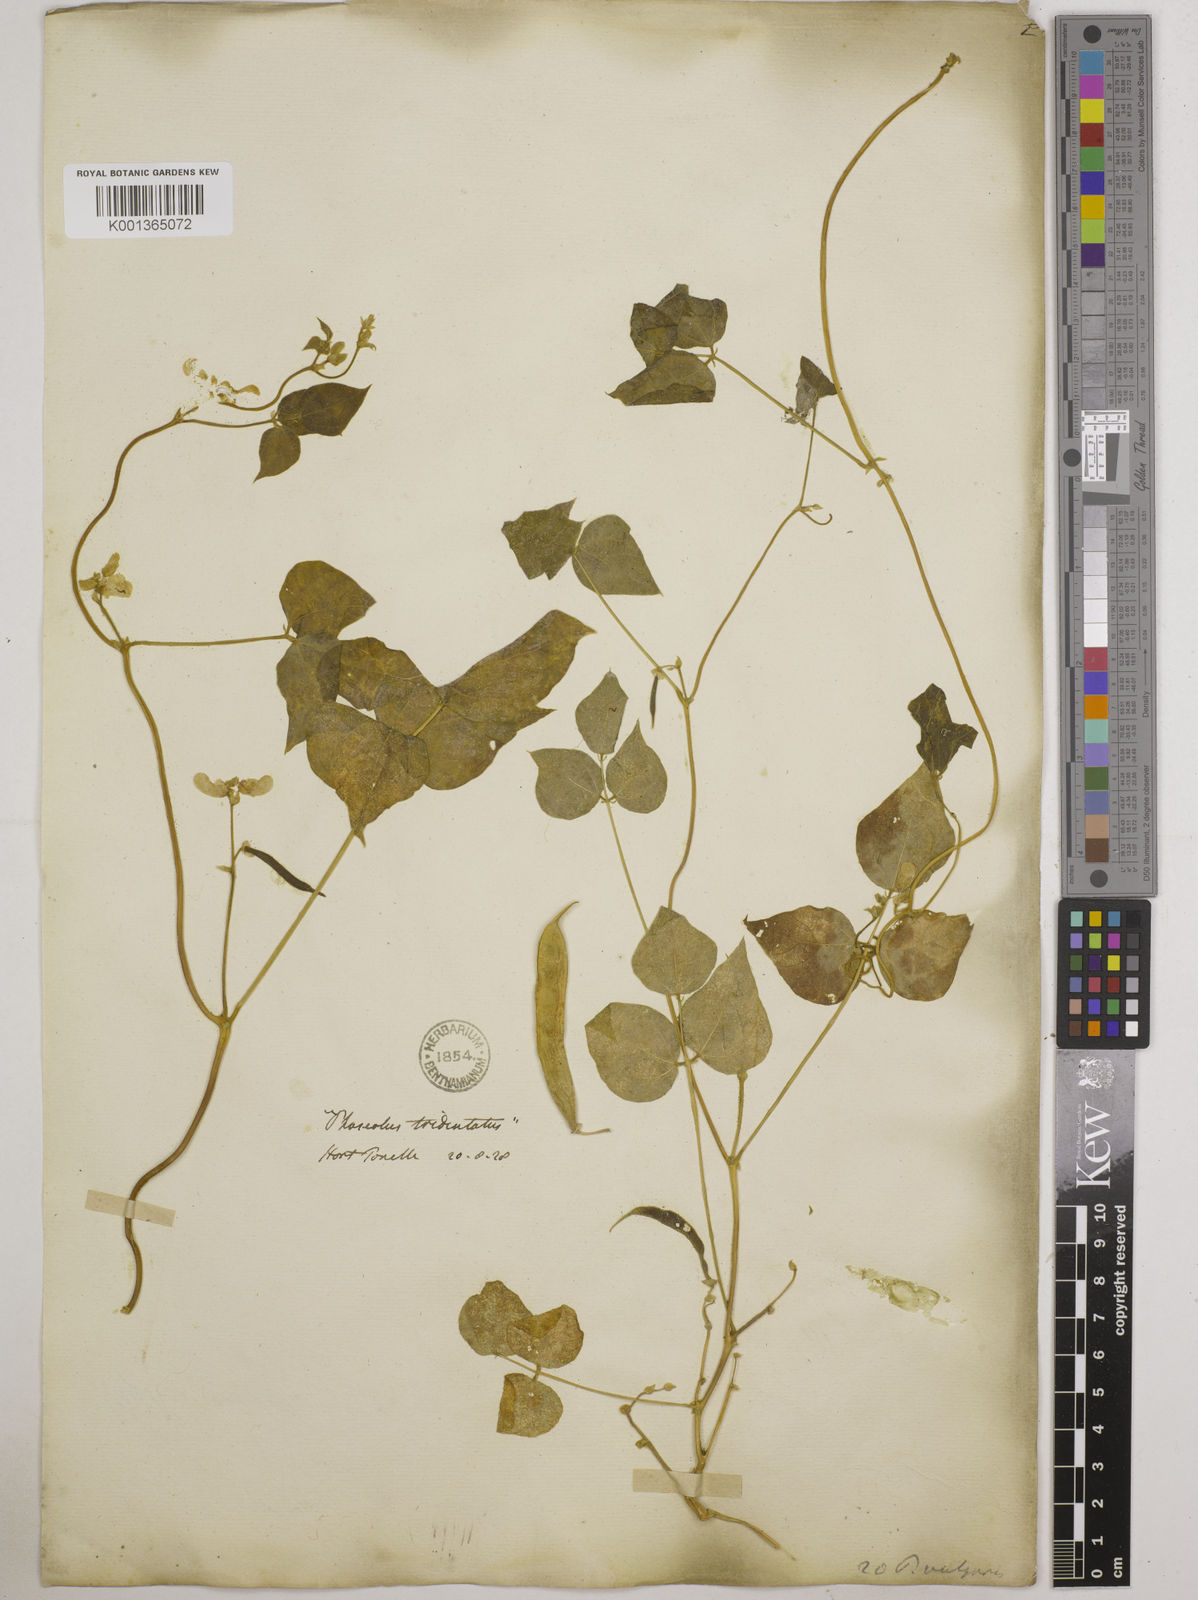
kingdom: Plantae
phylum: Tracheophyta
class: Magnoliopsida
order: Fabales
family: Fabaceae
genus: Phaseolus
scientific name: Phaseolus vulgaris
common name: Bean
